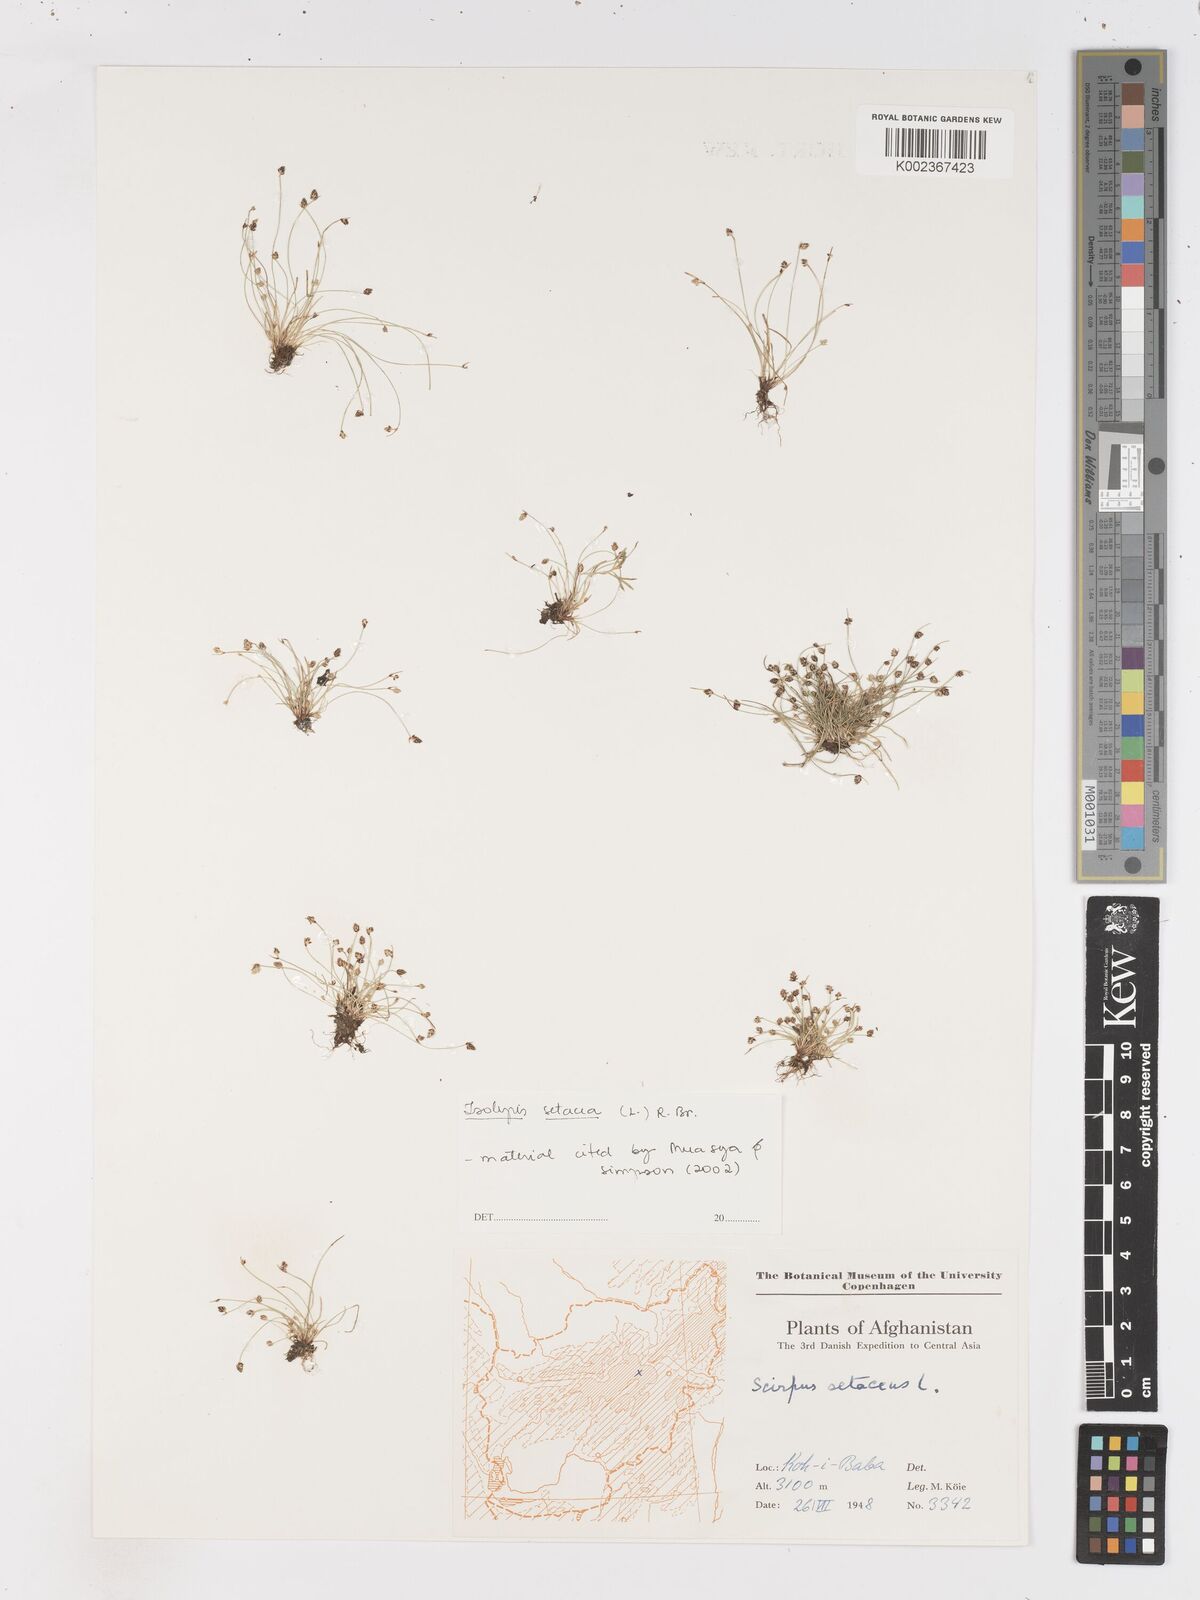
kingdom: Plantae
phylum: Tracheophyta
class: Liliopsida
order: Poales
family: Cyperaceae
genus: Isolepis
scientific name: Isolepis setacea
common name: Bristle club-rush
